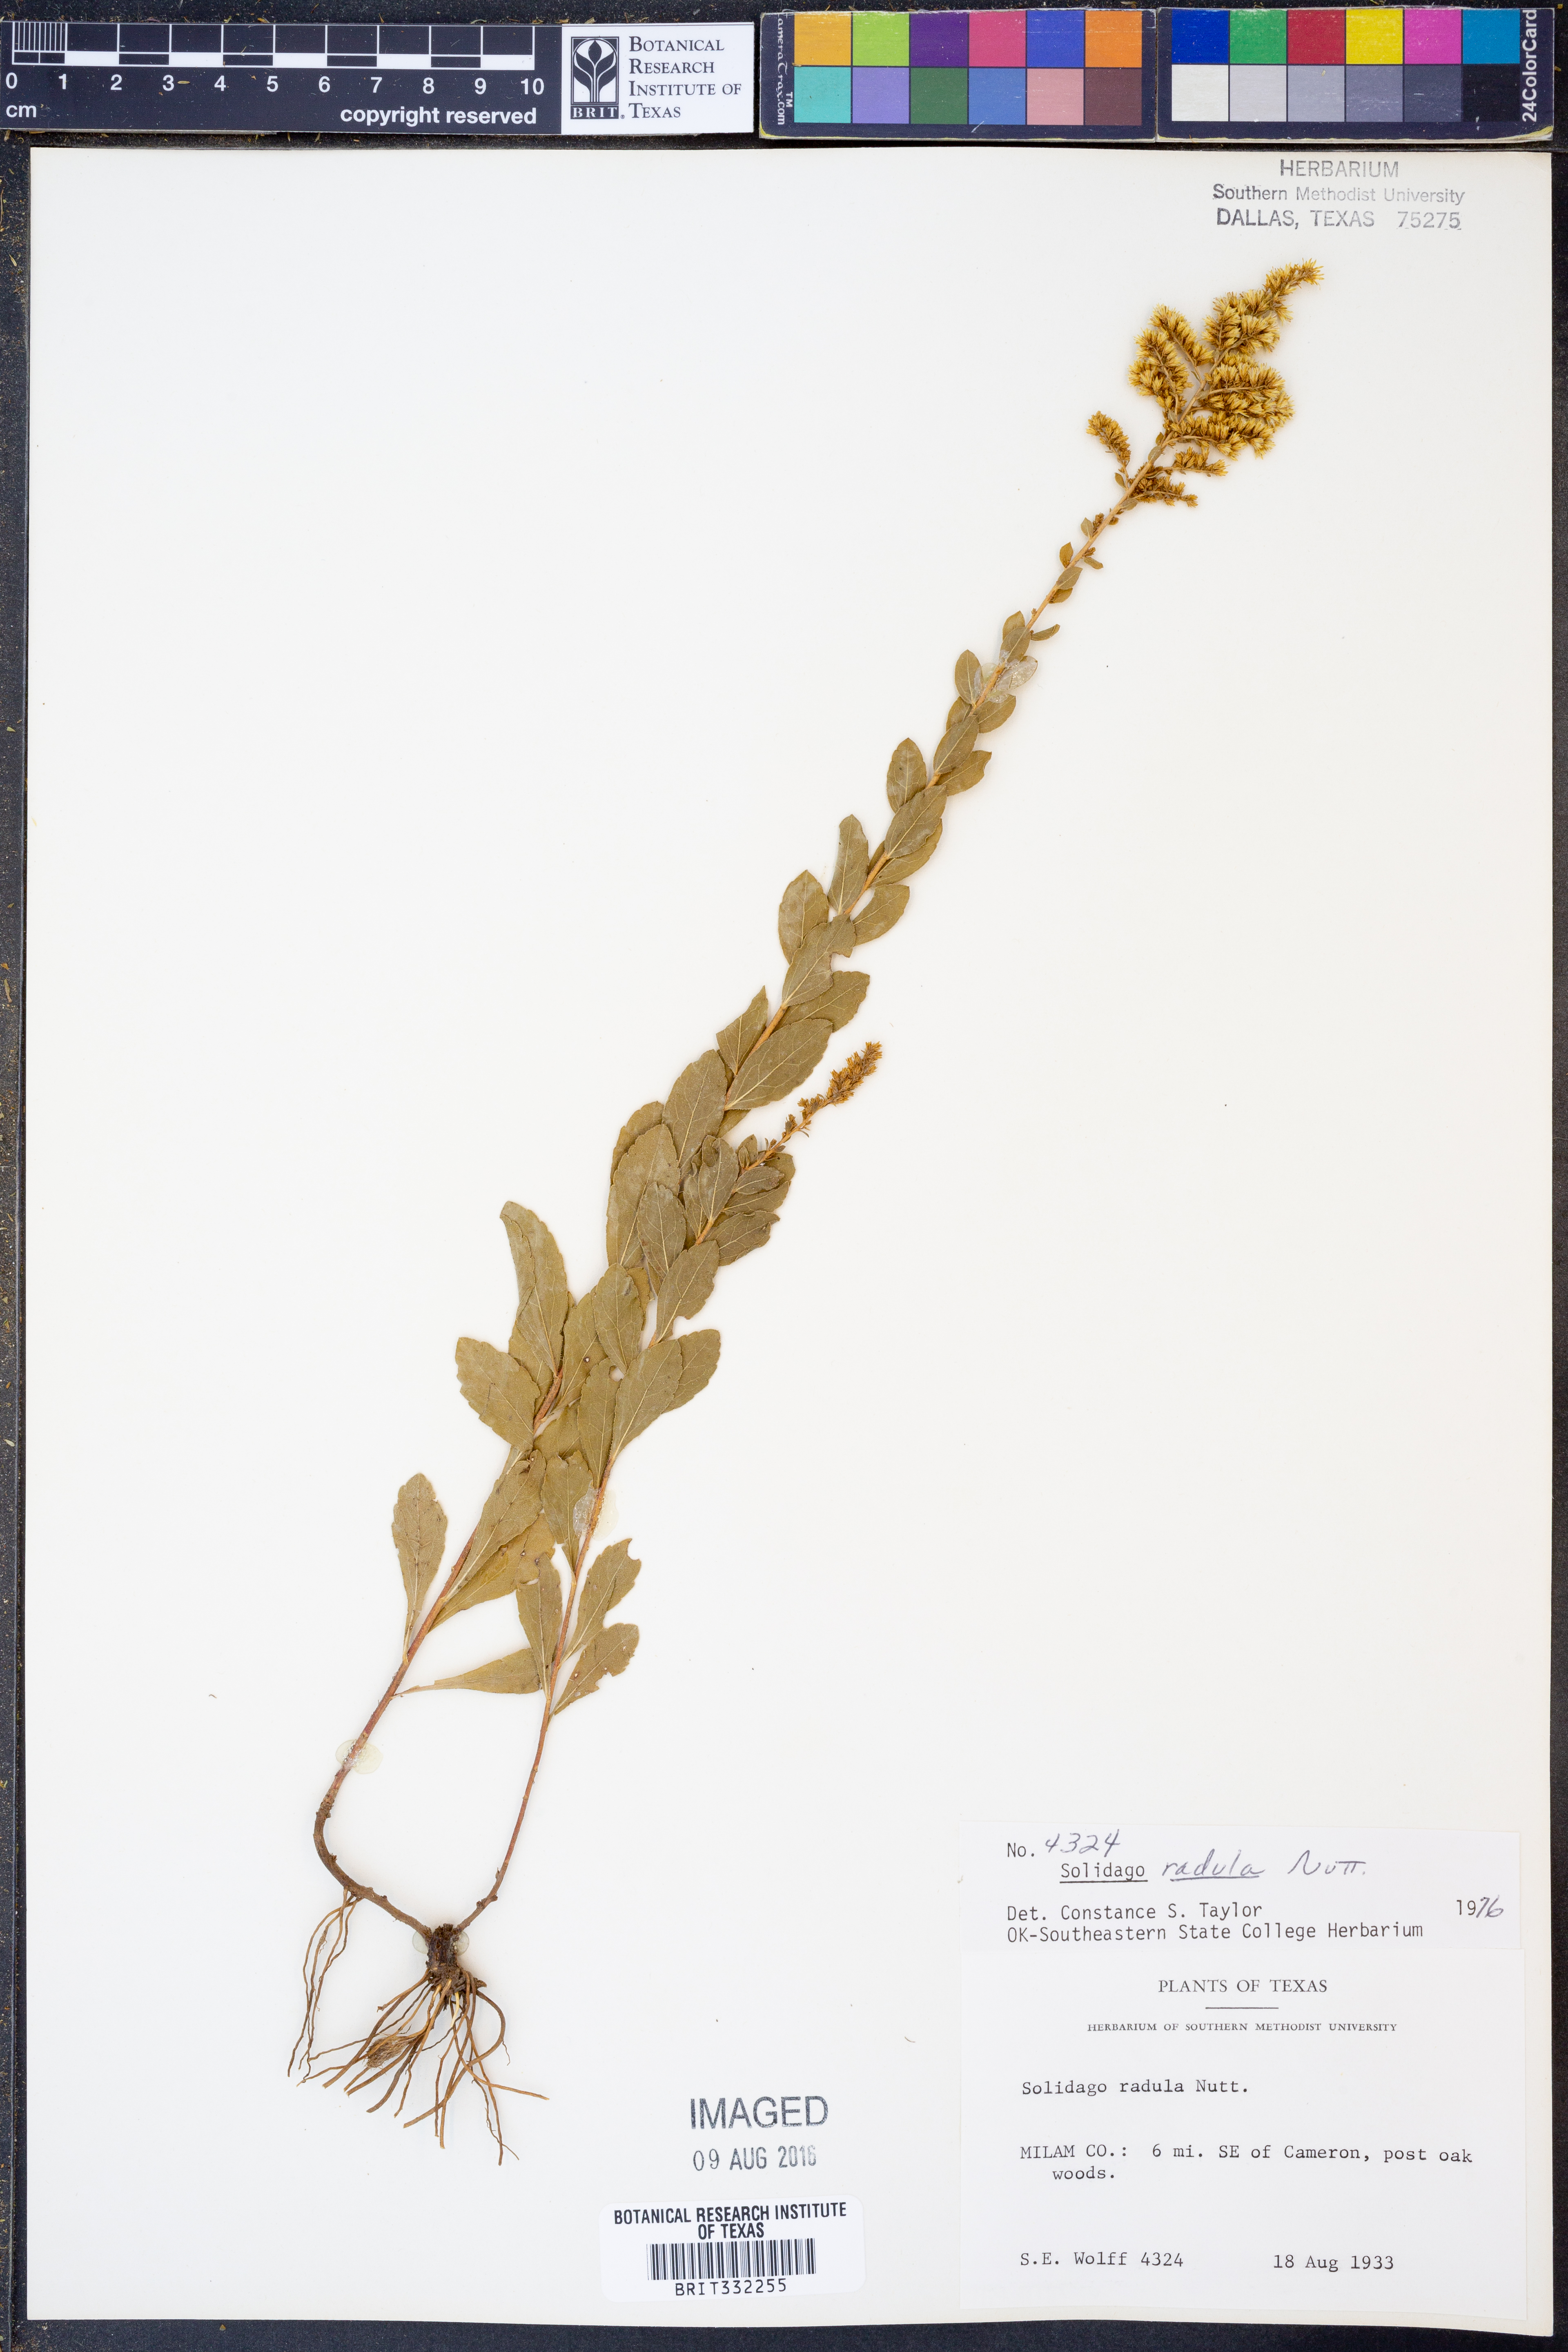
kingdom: Plantae
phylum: Tracheophyta
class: Magnoliopsida
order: Asterales
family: Asteraceae
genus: Solidago
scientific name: Solidago radula
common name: Western rough goldenrod
